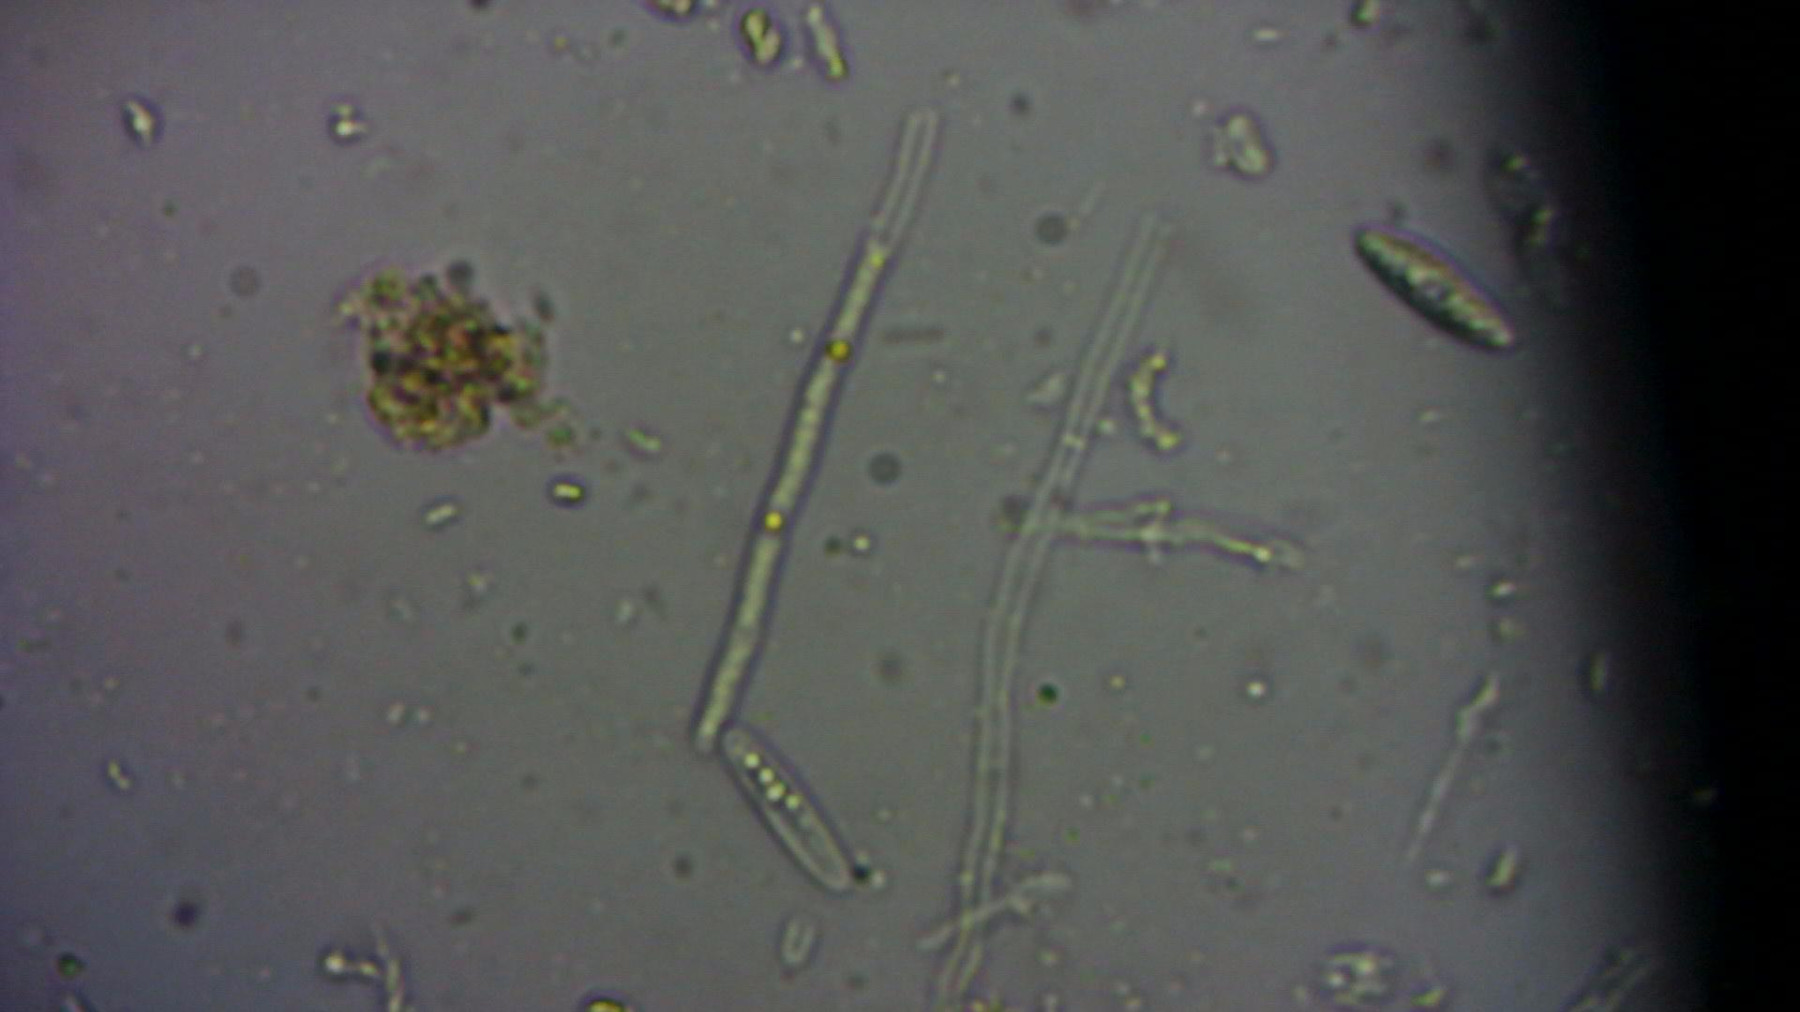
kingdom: Fungi
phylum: Ascomycota
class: Leotiomycetes
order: Helotiales
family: Helotiaceae
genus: Hymenoscyphus
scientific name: Hymenoscyphus menthae
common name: eng-stilkskive
